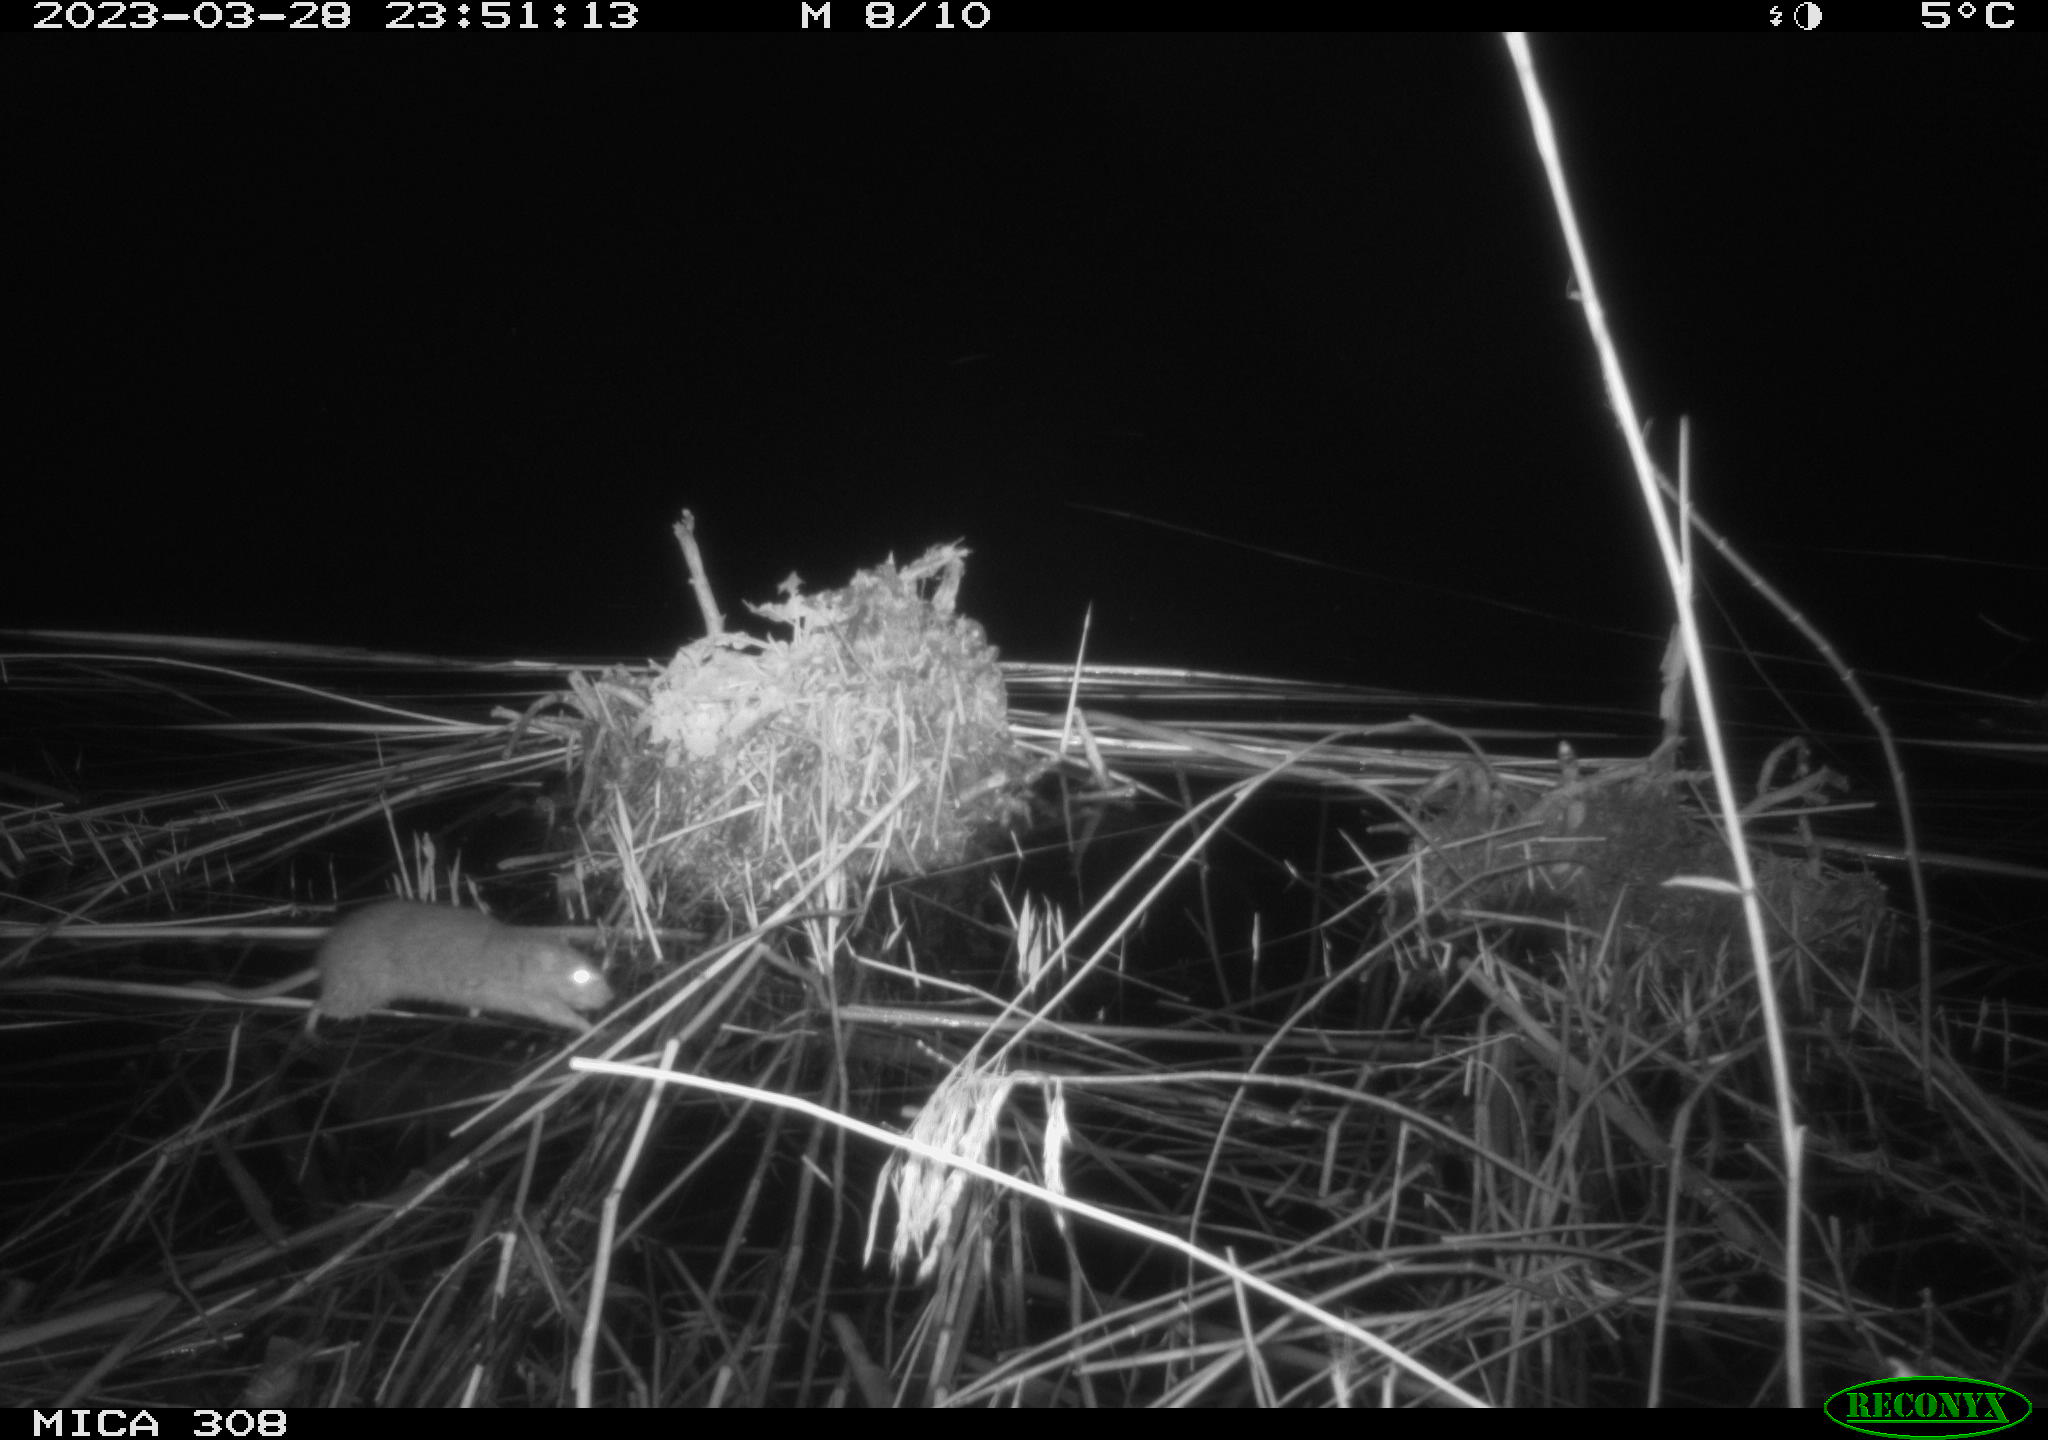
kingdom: Animalia
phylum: Chordata
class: Mammalia
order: Rodentia
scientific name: Rodentia
